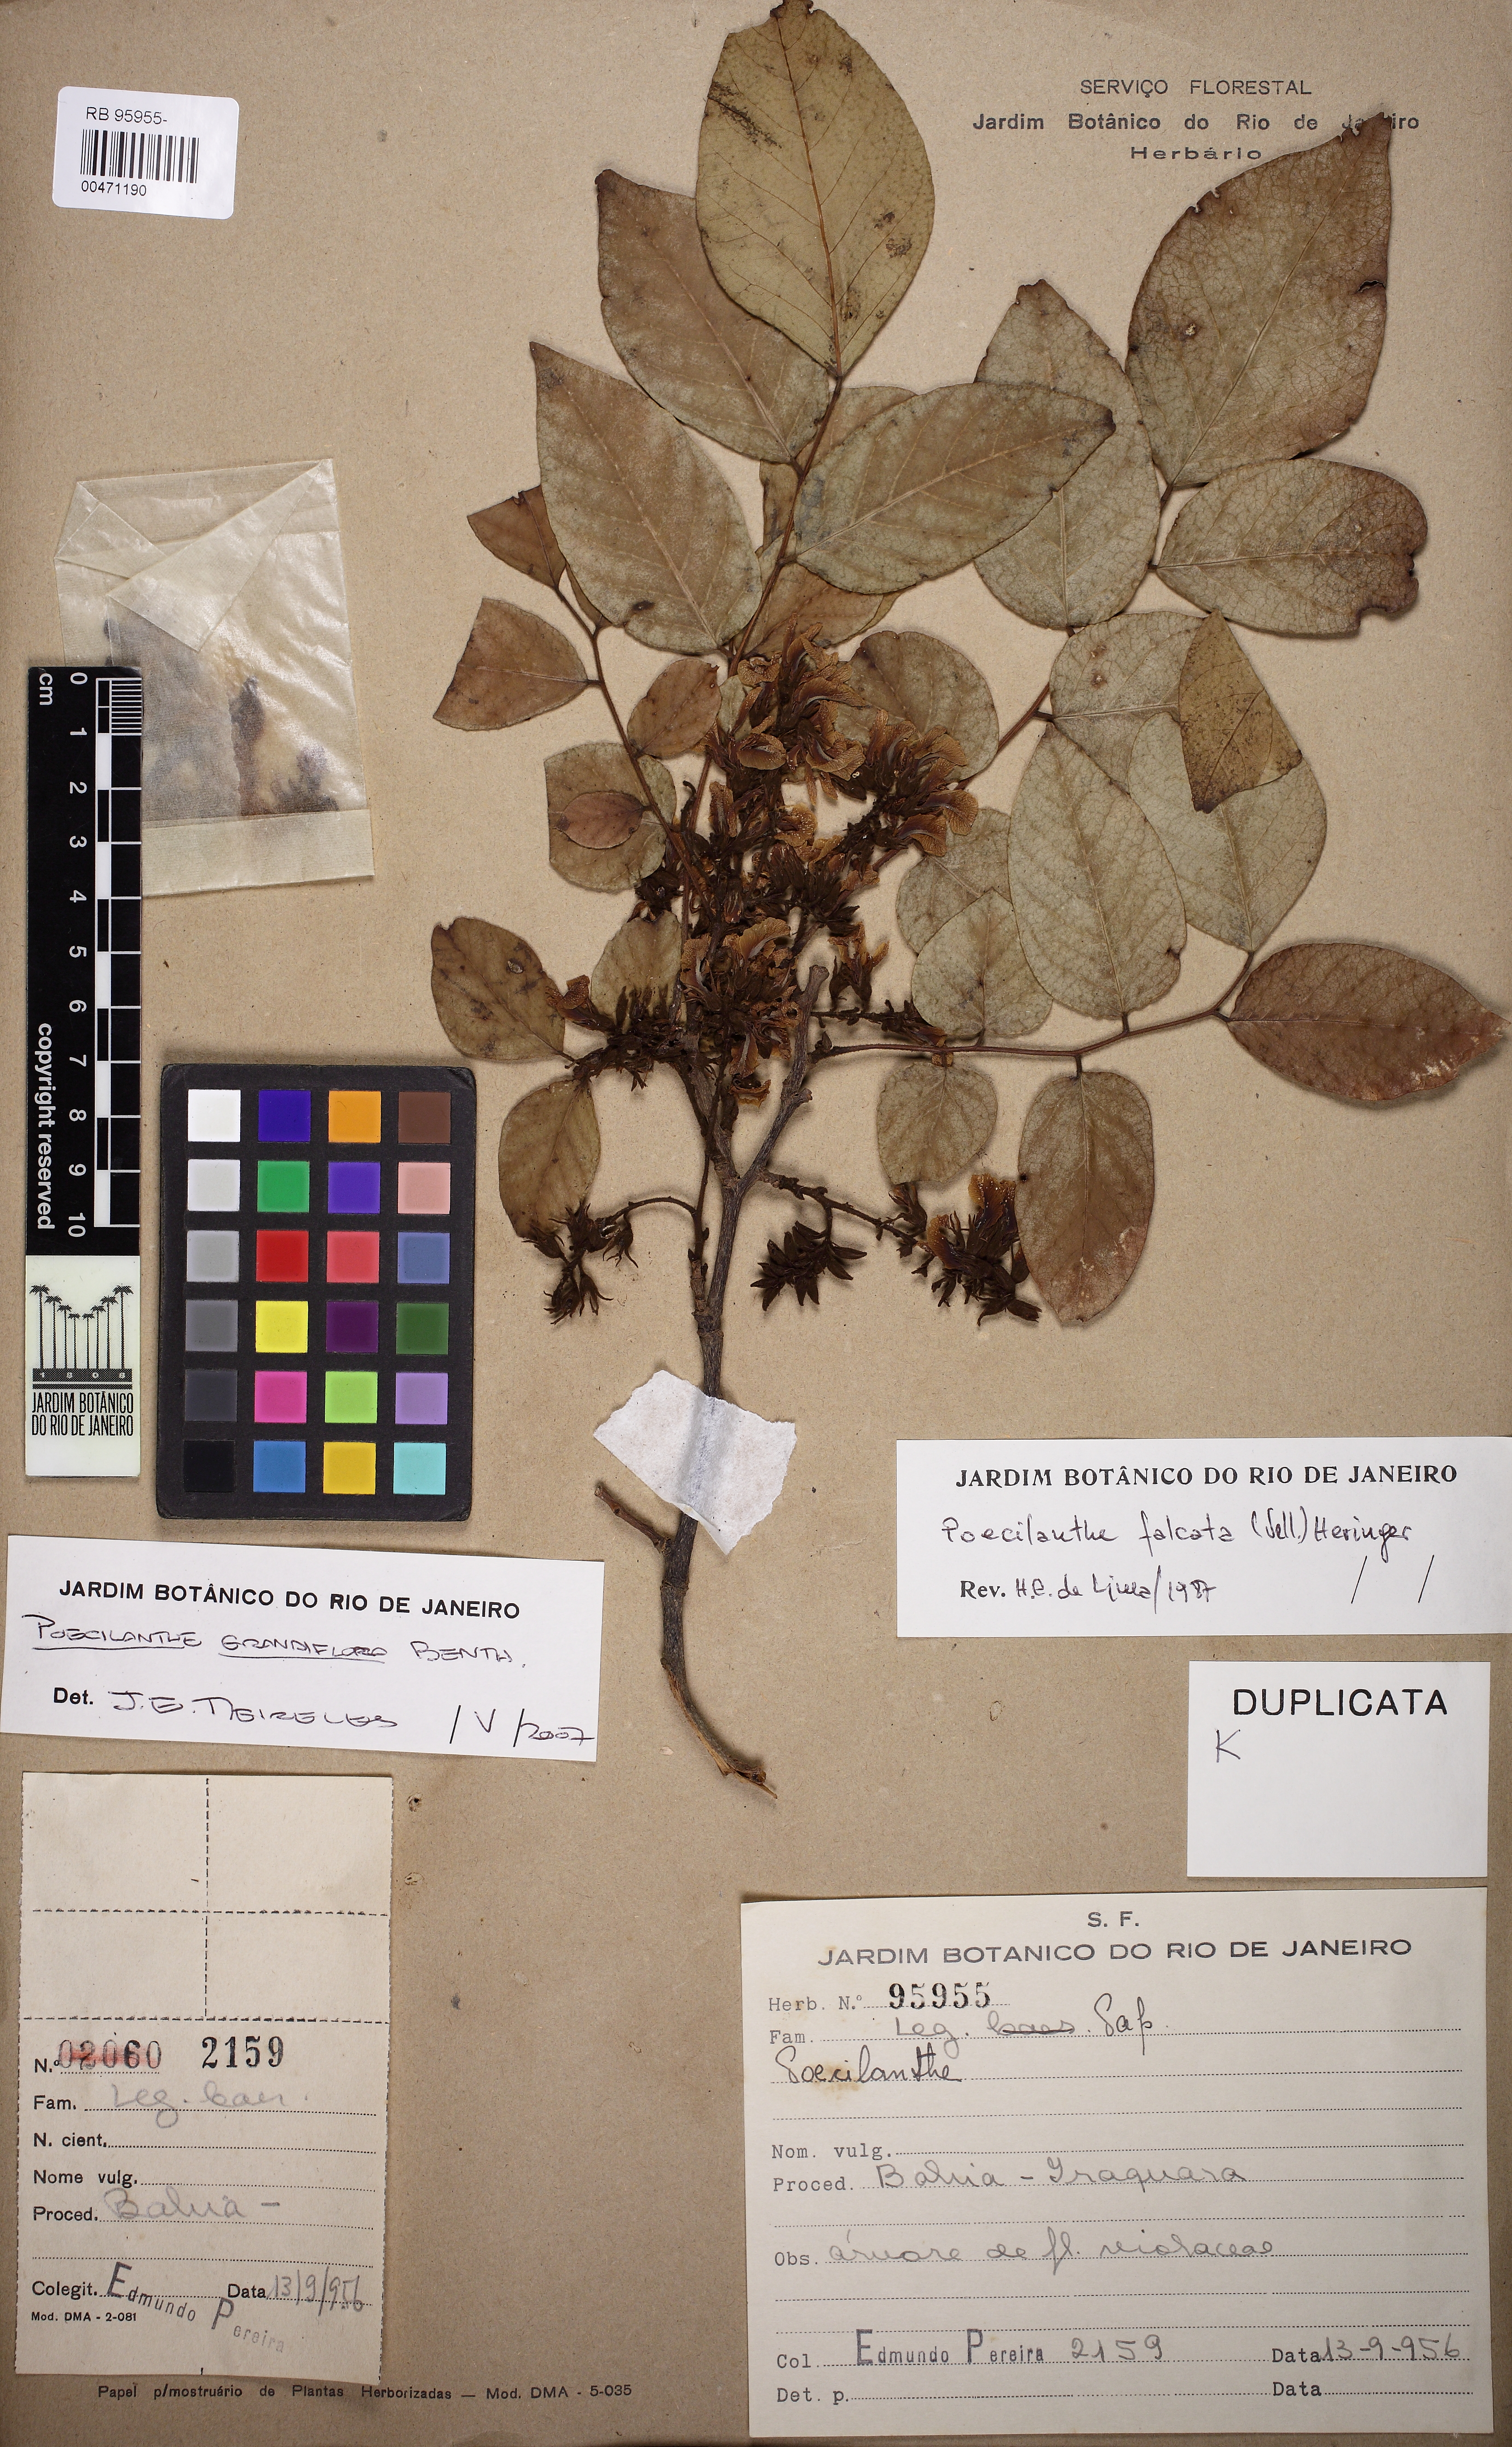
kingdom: Plantae
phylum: Tracheophyta
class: Magnoliopsida
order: Fabales
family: Fabaceae
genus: Poecilanthe
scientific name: Poecilanthe grandiflora
